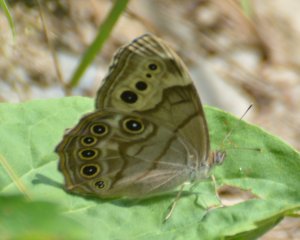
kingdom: Animalia
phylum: Arthropoda
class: Insecta
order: Lepidoptera
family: Nymphalidae
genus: Lethe
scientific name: Lethe anthedon
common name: Northern Pearly-Eye
